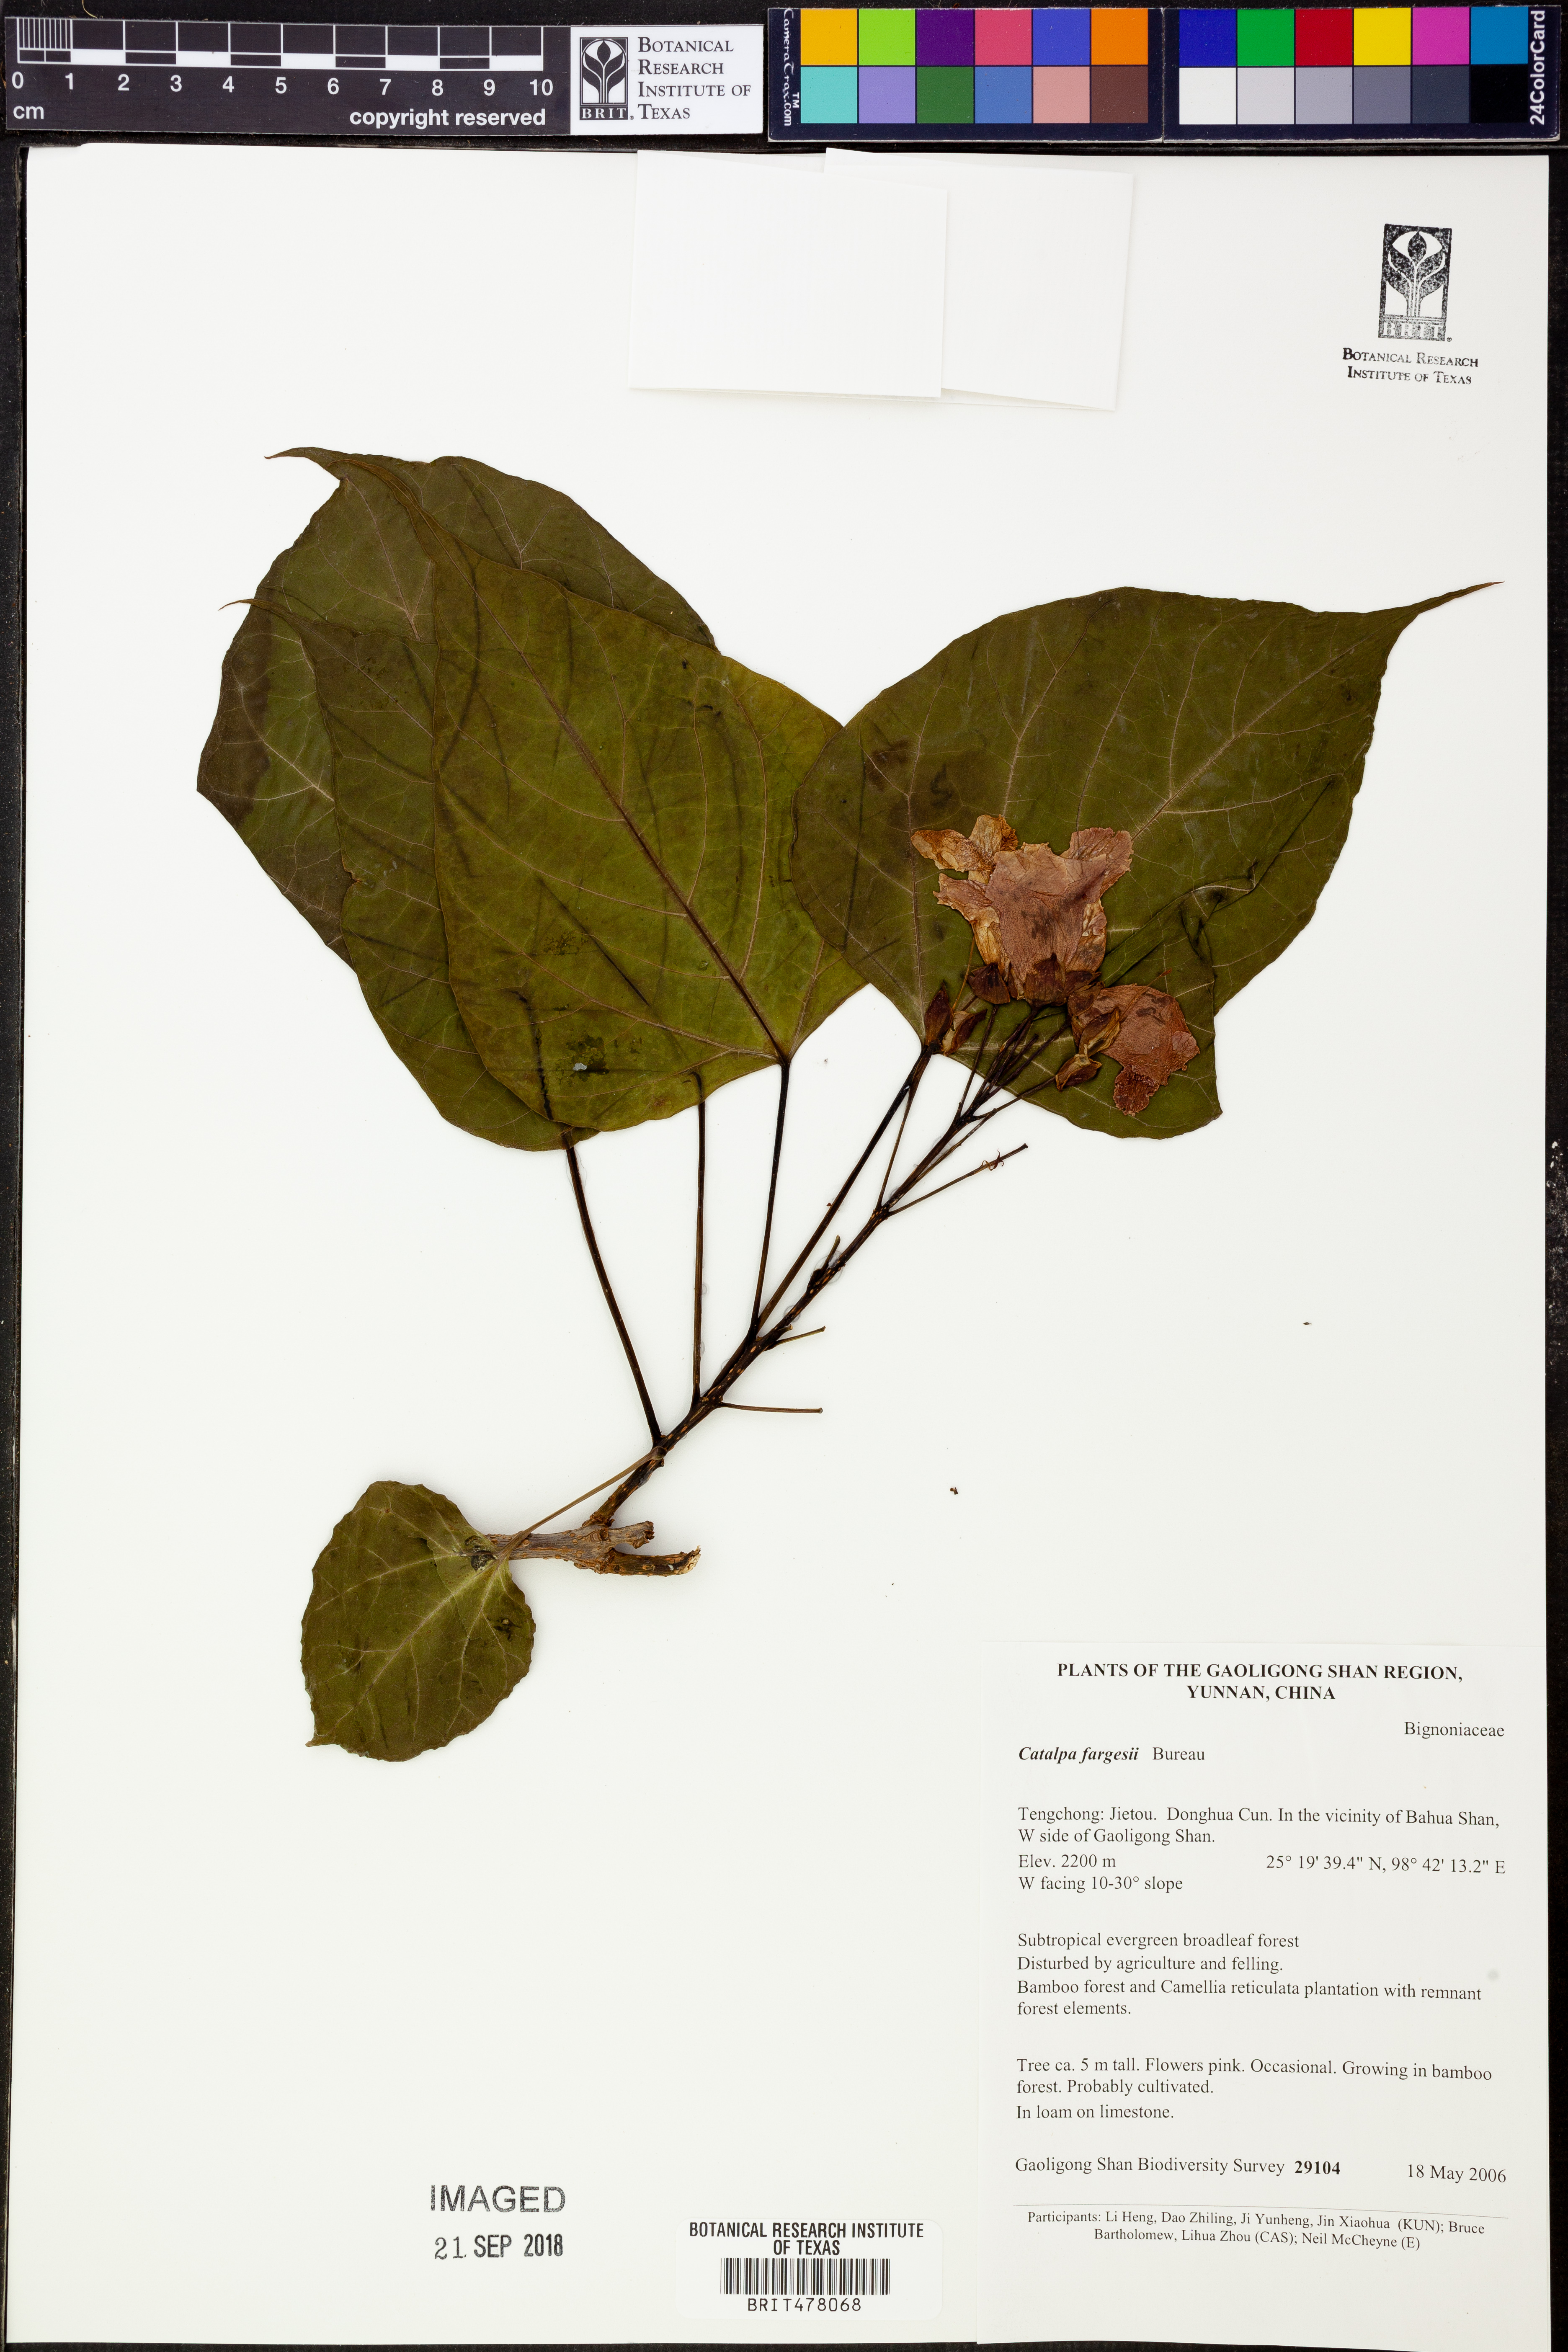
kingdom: Plantae
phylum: Tracheophyta
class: Magnoliopsida
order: Lamiales
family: Bignoniaceae
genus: Catalpa
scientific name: Catalpa fargesii
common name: Farges's catalpa
